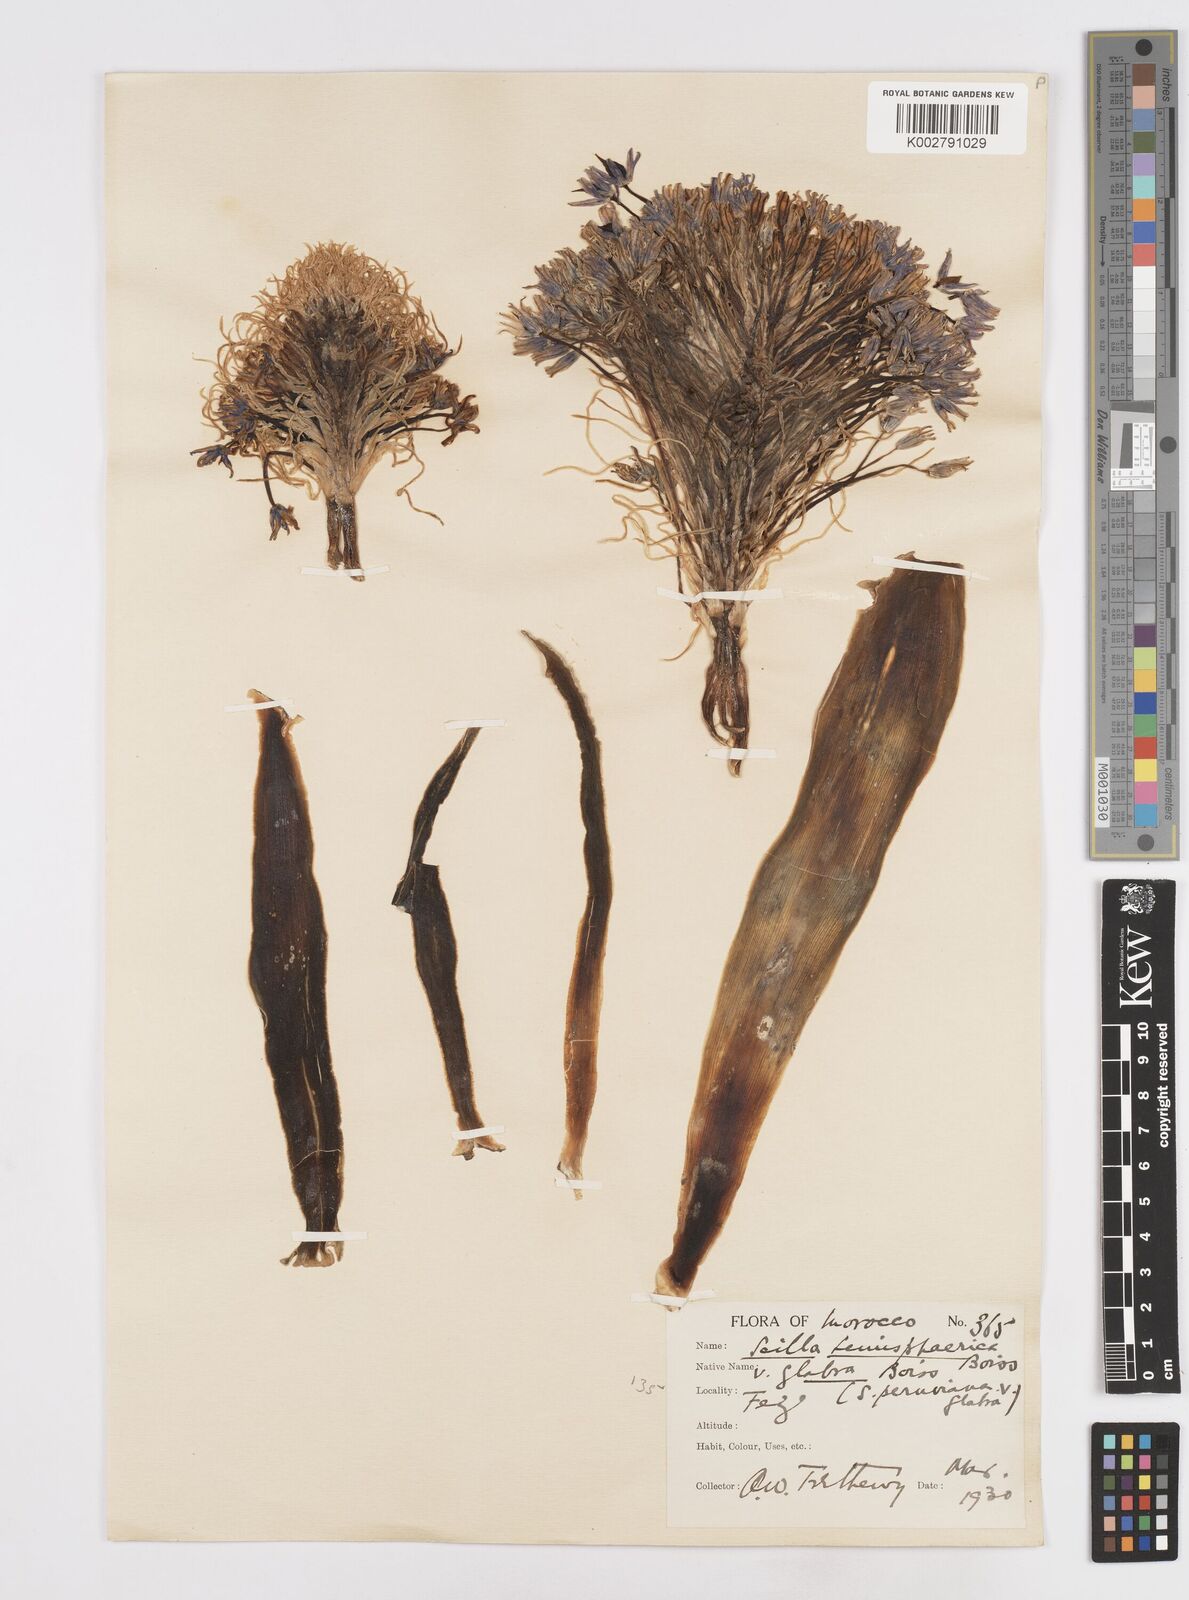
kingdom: Plantae
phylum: Tracheophyta
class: Liliopsida
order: Asparagales
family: Asparagaceae
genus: Scilla
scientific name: Scilla peruviana
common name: Portuguese squill
